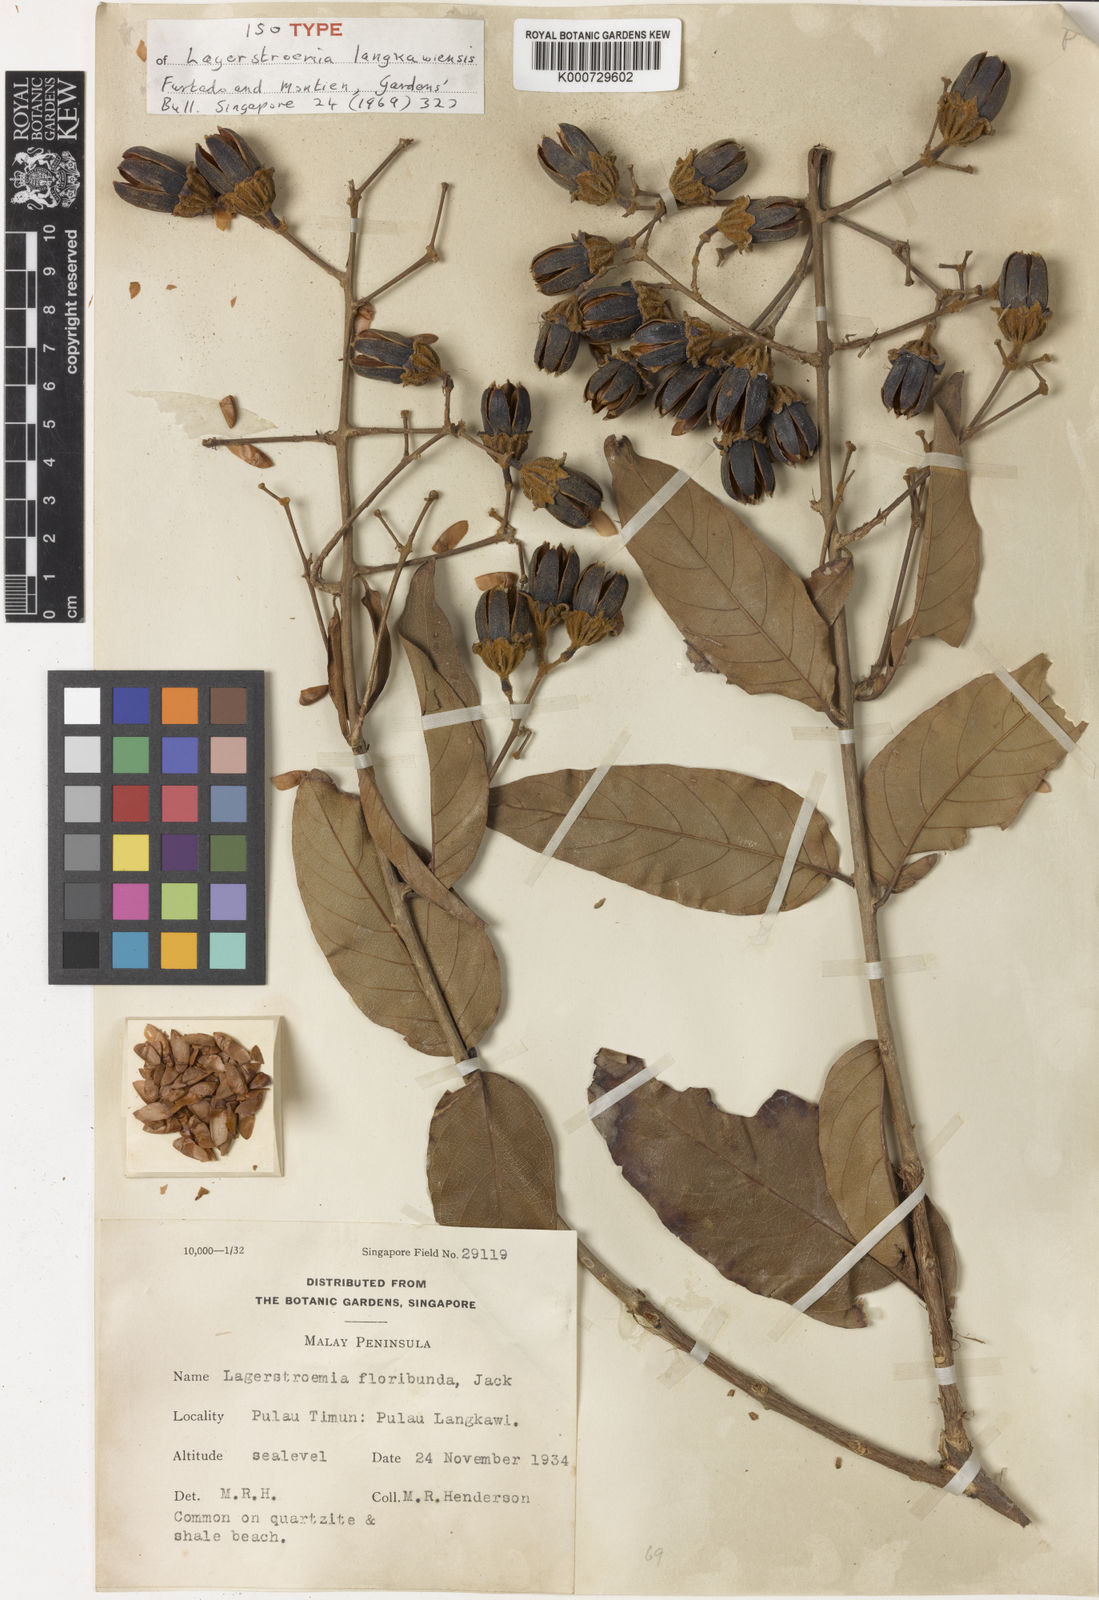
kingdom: Plantae
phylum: Tracheophyta
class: Magnoliopsida
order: Myrtales
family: Lythraceae
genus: Lagerstroemia
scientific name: Lagerstroemia langkawiensis
